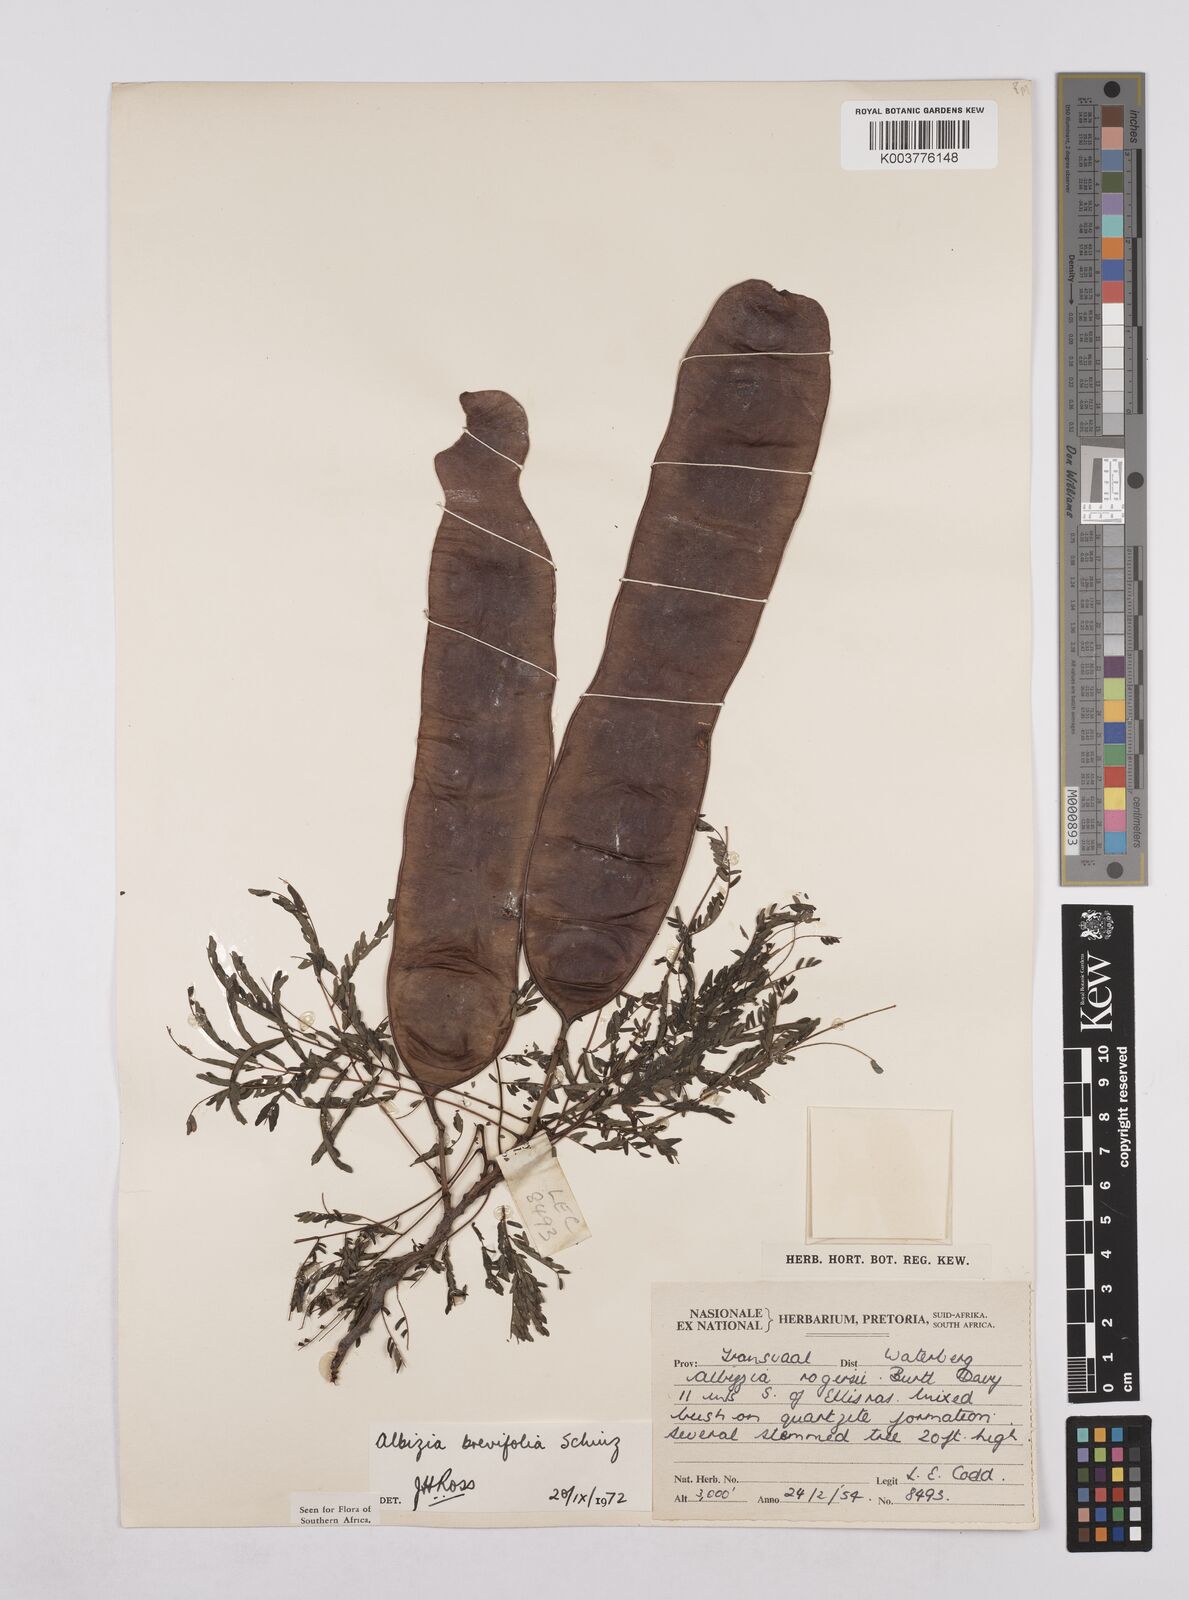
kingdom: Plantae
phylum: Tracheophyta
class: Magnoliopsida
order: Fabales
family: Fabaceae
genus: Albizia
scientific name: Albizia brevifolia
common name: Rock false-thorn
